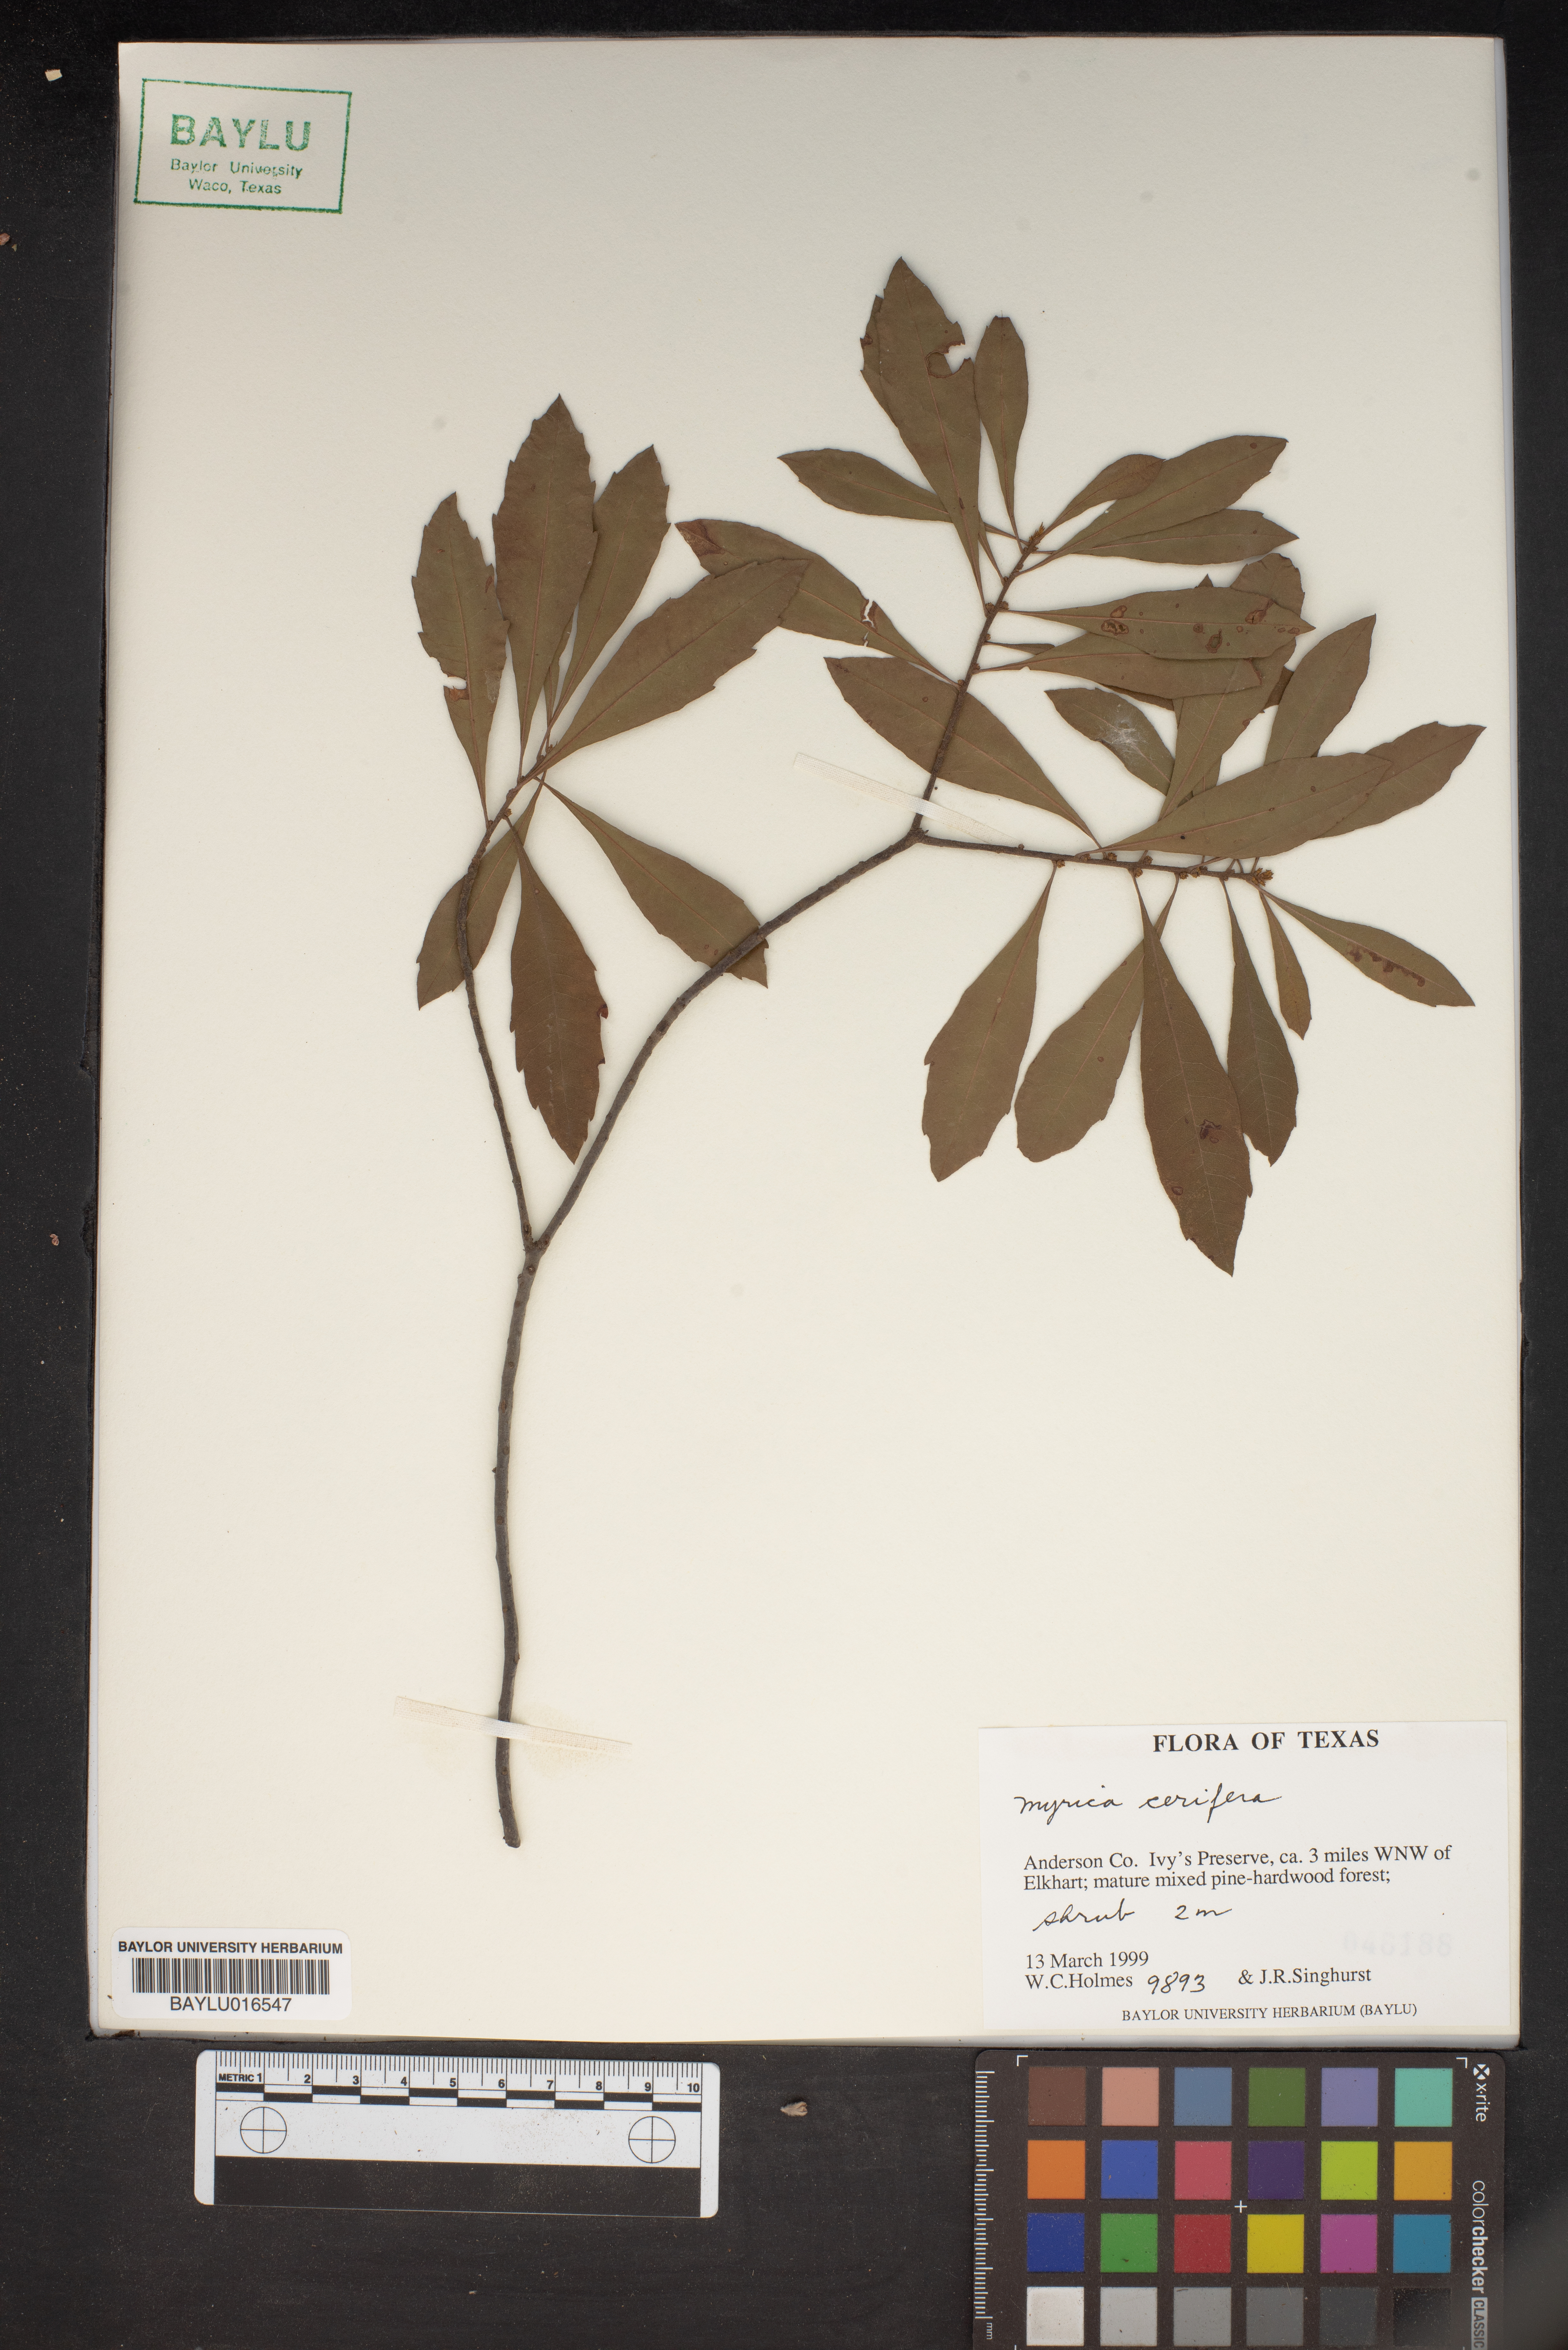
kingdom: Plantae
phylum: Tracheophyta
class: Magnoliopsida
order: Fagales
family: Myricaceae
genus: Morella
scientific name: Morella cerifera
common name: Wax myrtle
